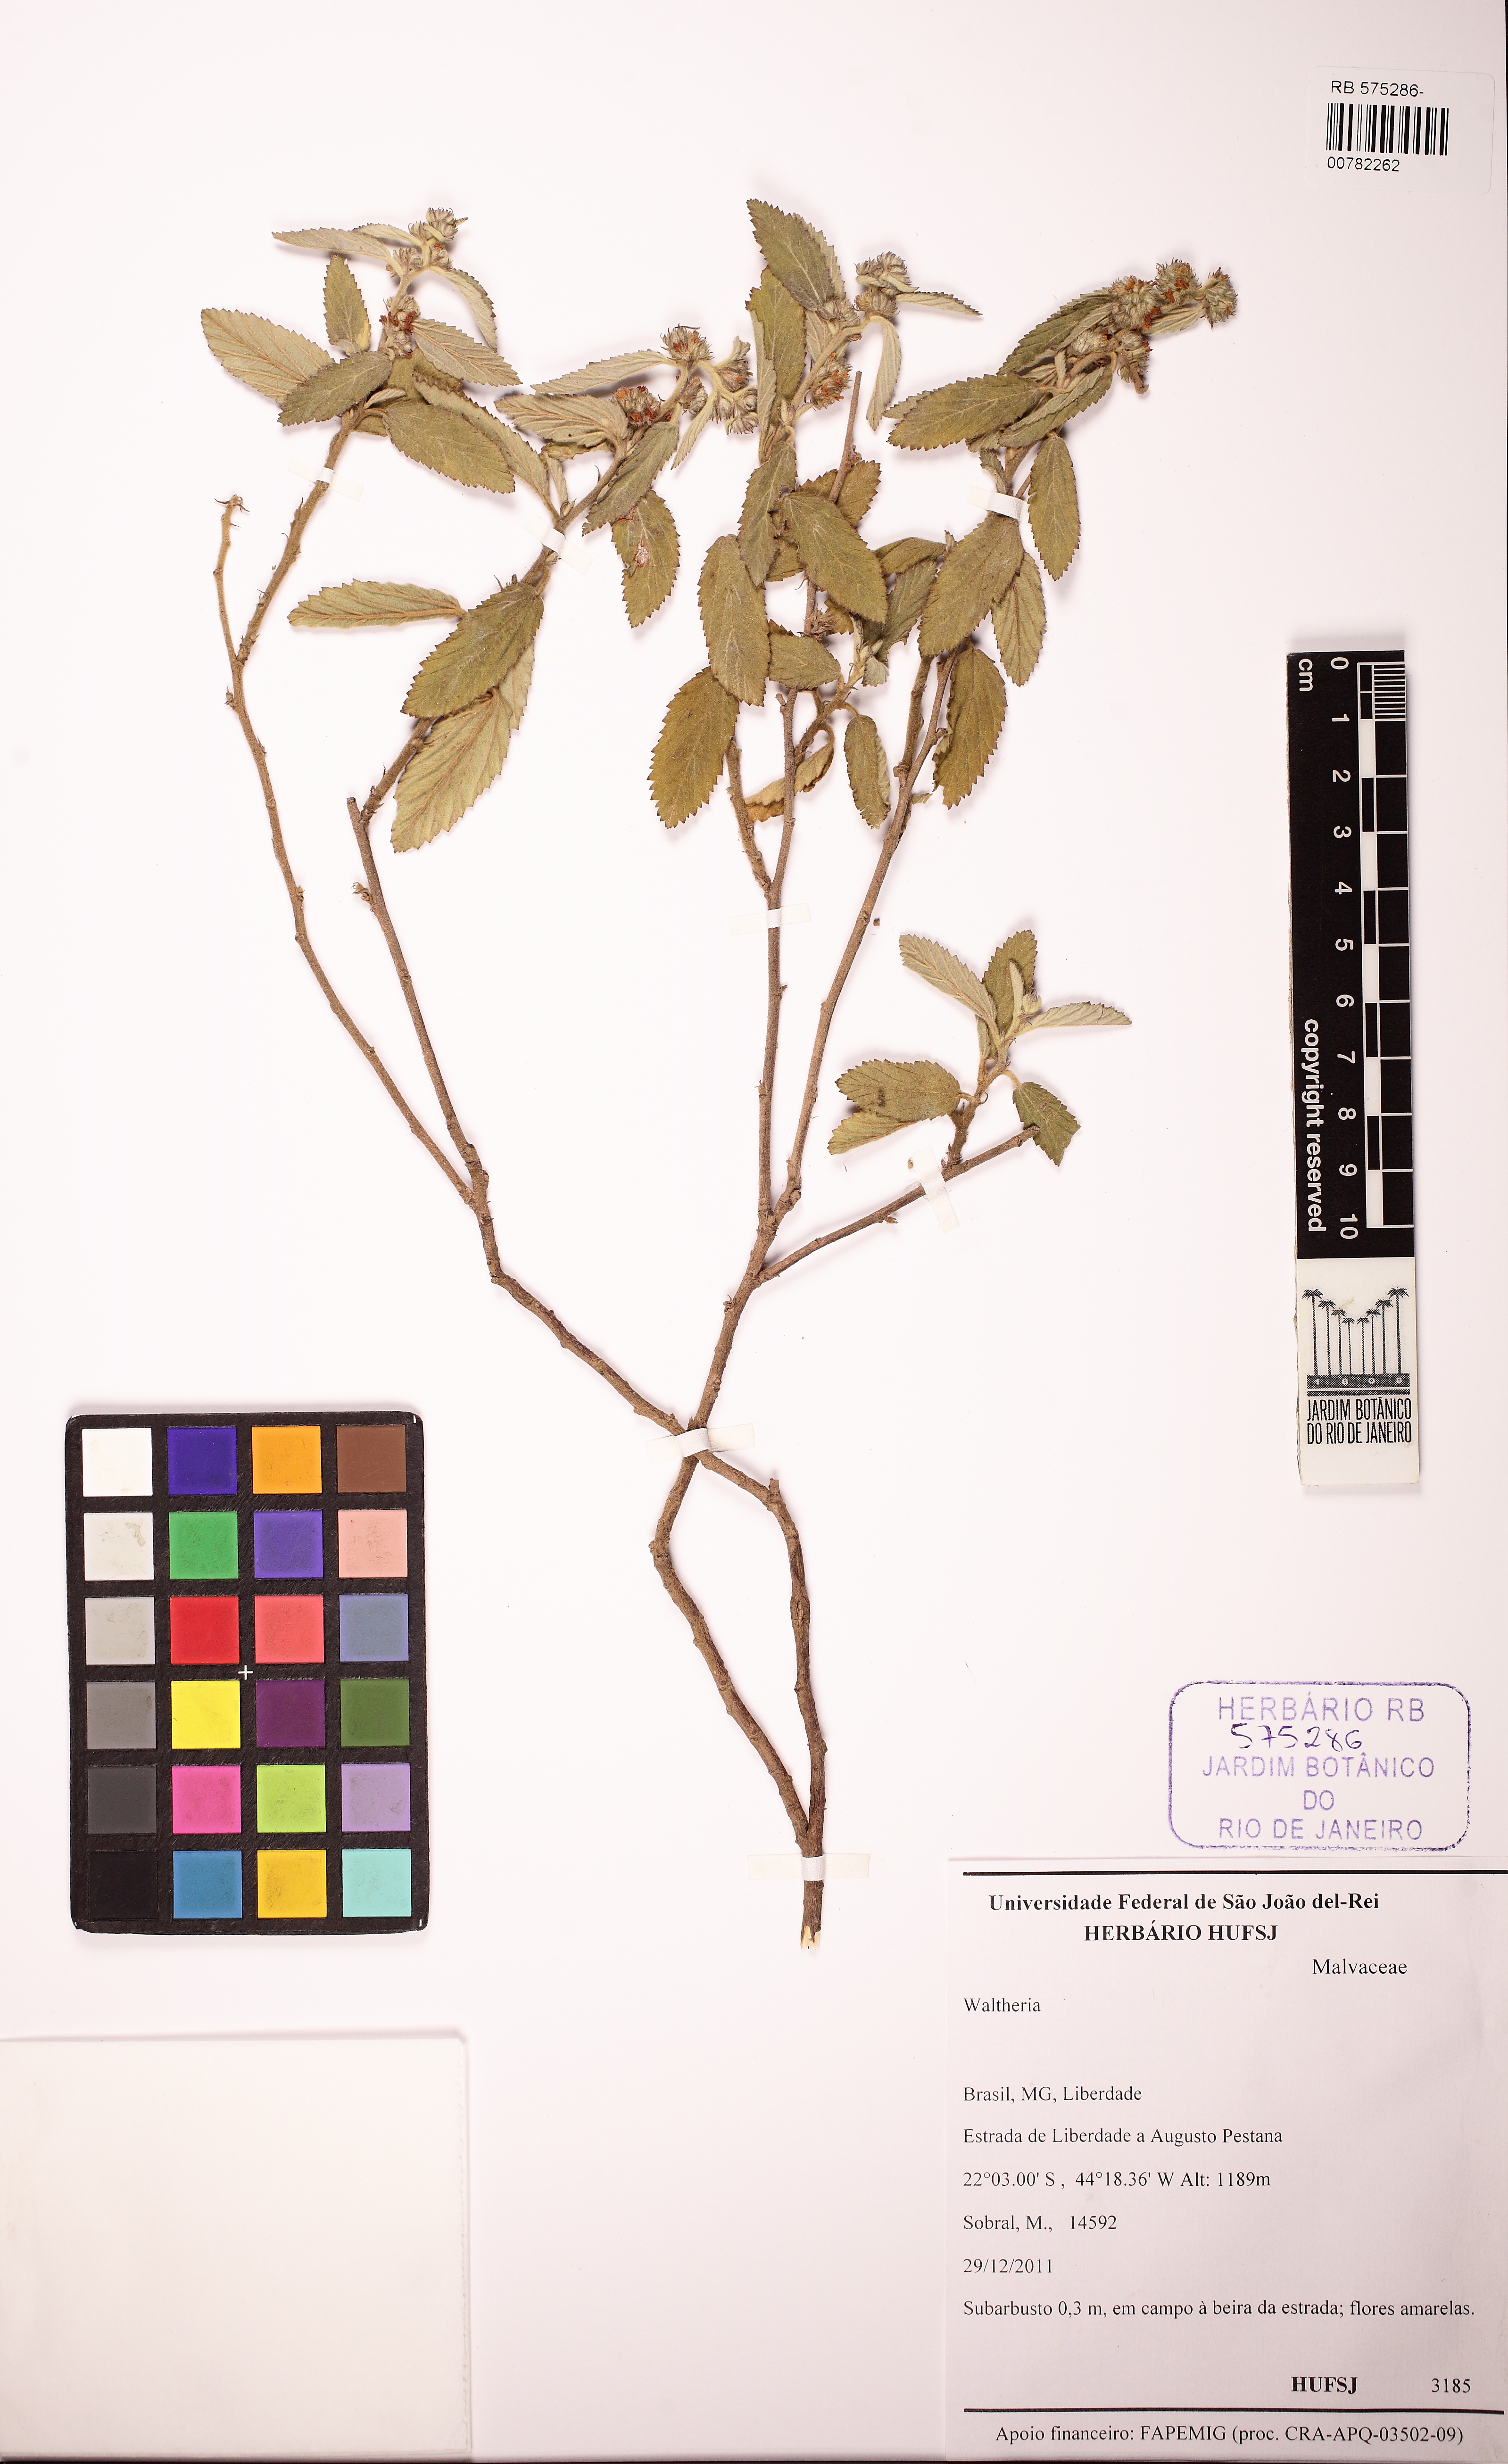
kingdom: Plantae
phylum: Tracheophyta
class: Magnoliopsida
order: Malvales
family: Malvaceae
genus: Waltheria
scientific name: Waltheria indica
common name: Leather-coat
